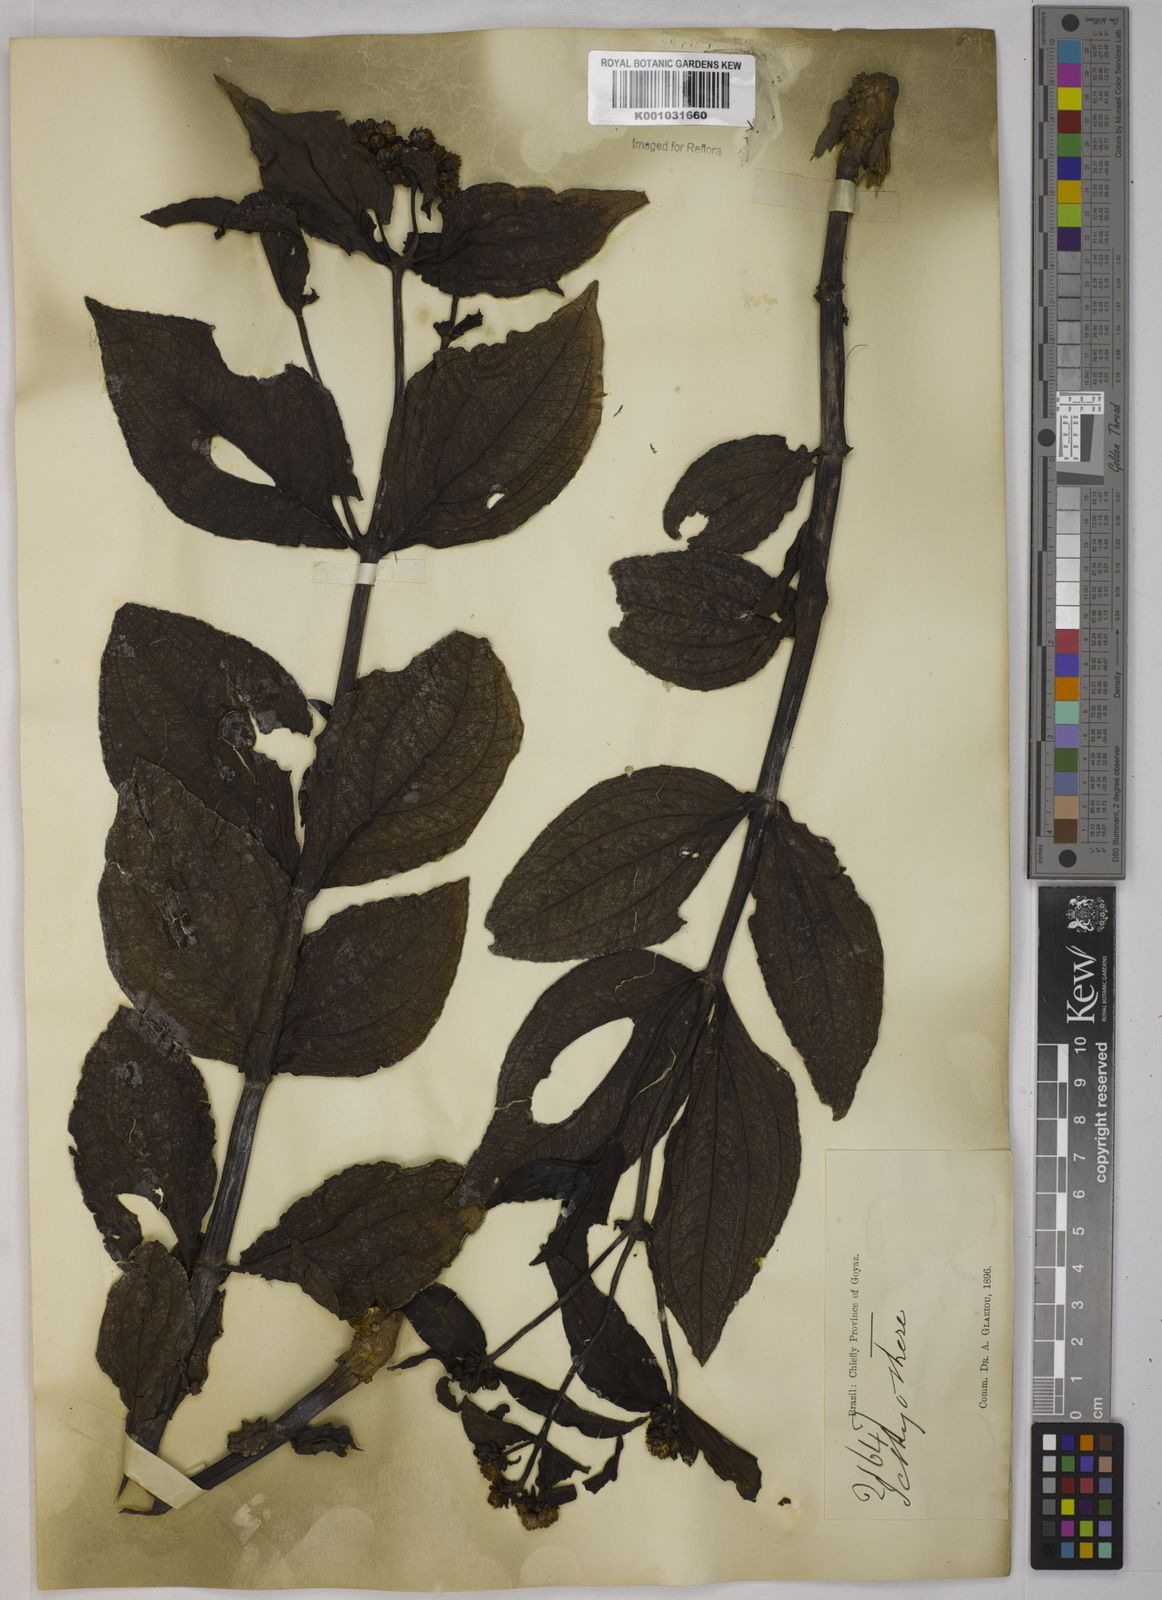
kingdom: Plantae
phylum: Tracheophyta
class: Magnoliopsida
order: Asterales
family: Asteraceae
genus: Ichthyothere
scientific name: Ichthyothere
